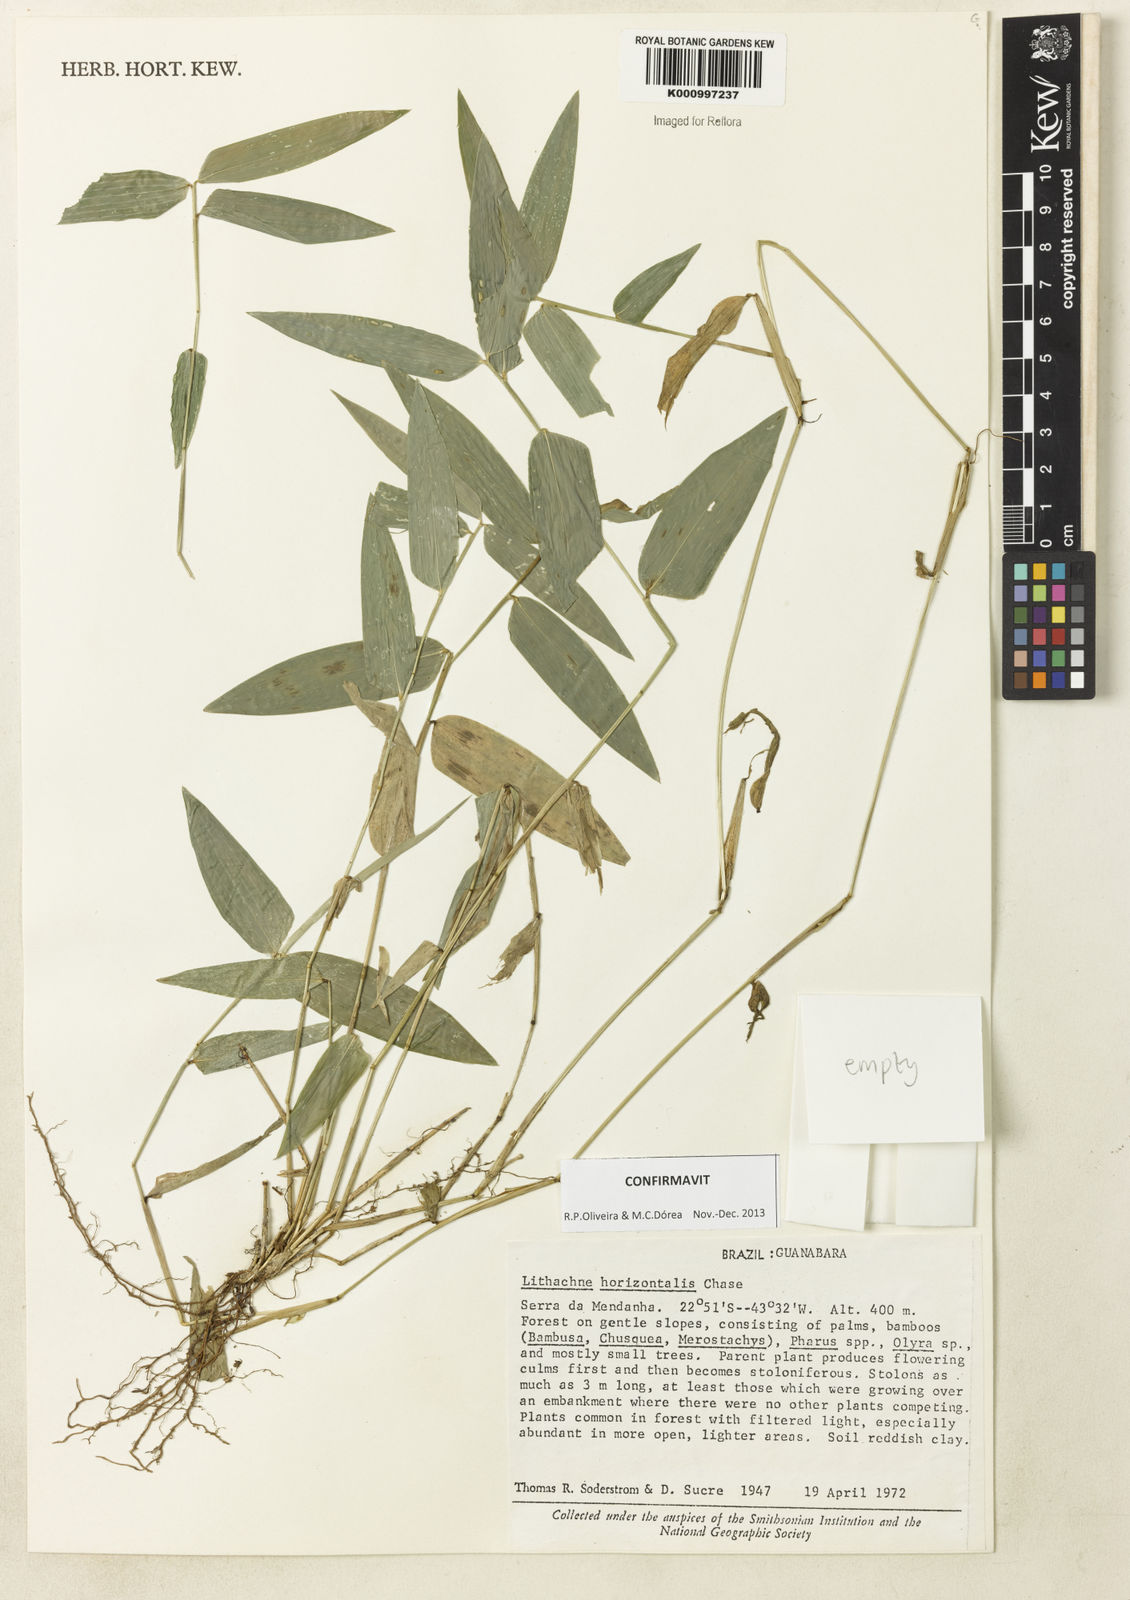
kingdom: Plantae
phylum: Tracheophyta
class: Liliopsida
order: Poales
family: Poaceae
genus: Lithachne
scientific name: Lithachne horizontalis
